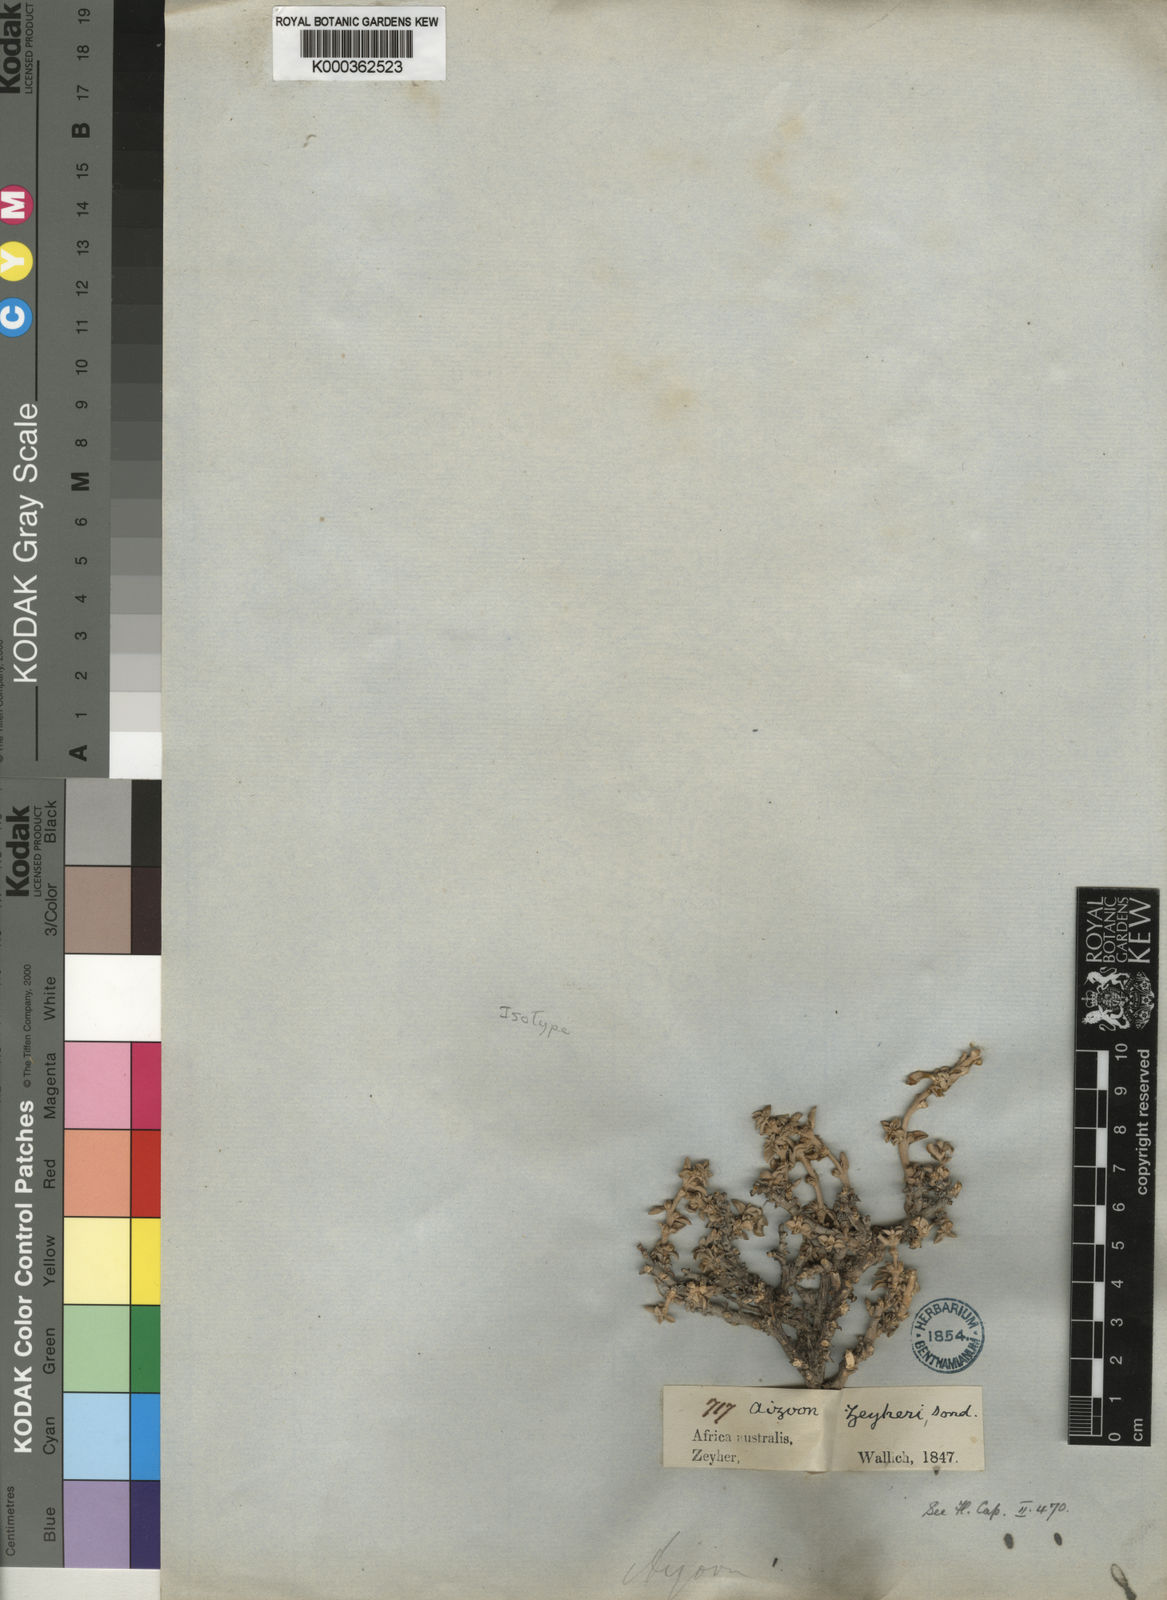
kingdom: Plantae
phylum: Tracheophyta
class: Magnoliopsida
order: Caryophyllales
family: Aizoaceae
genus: Aizoon
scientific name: Aizoon zeyheri
